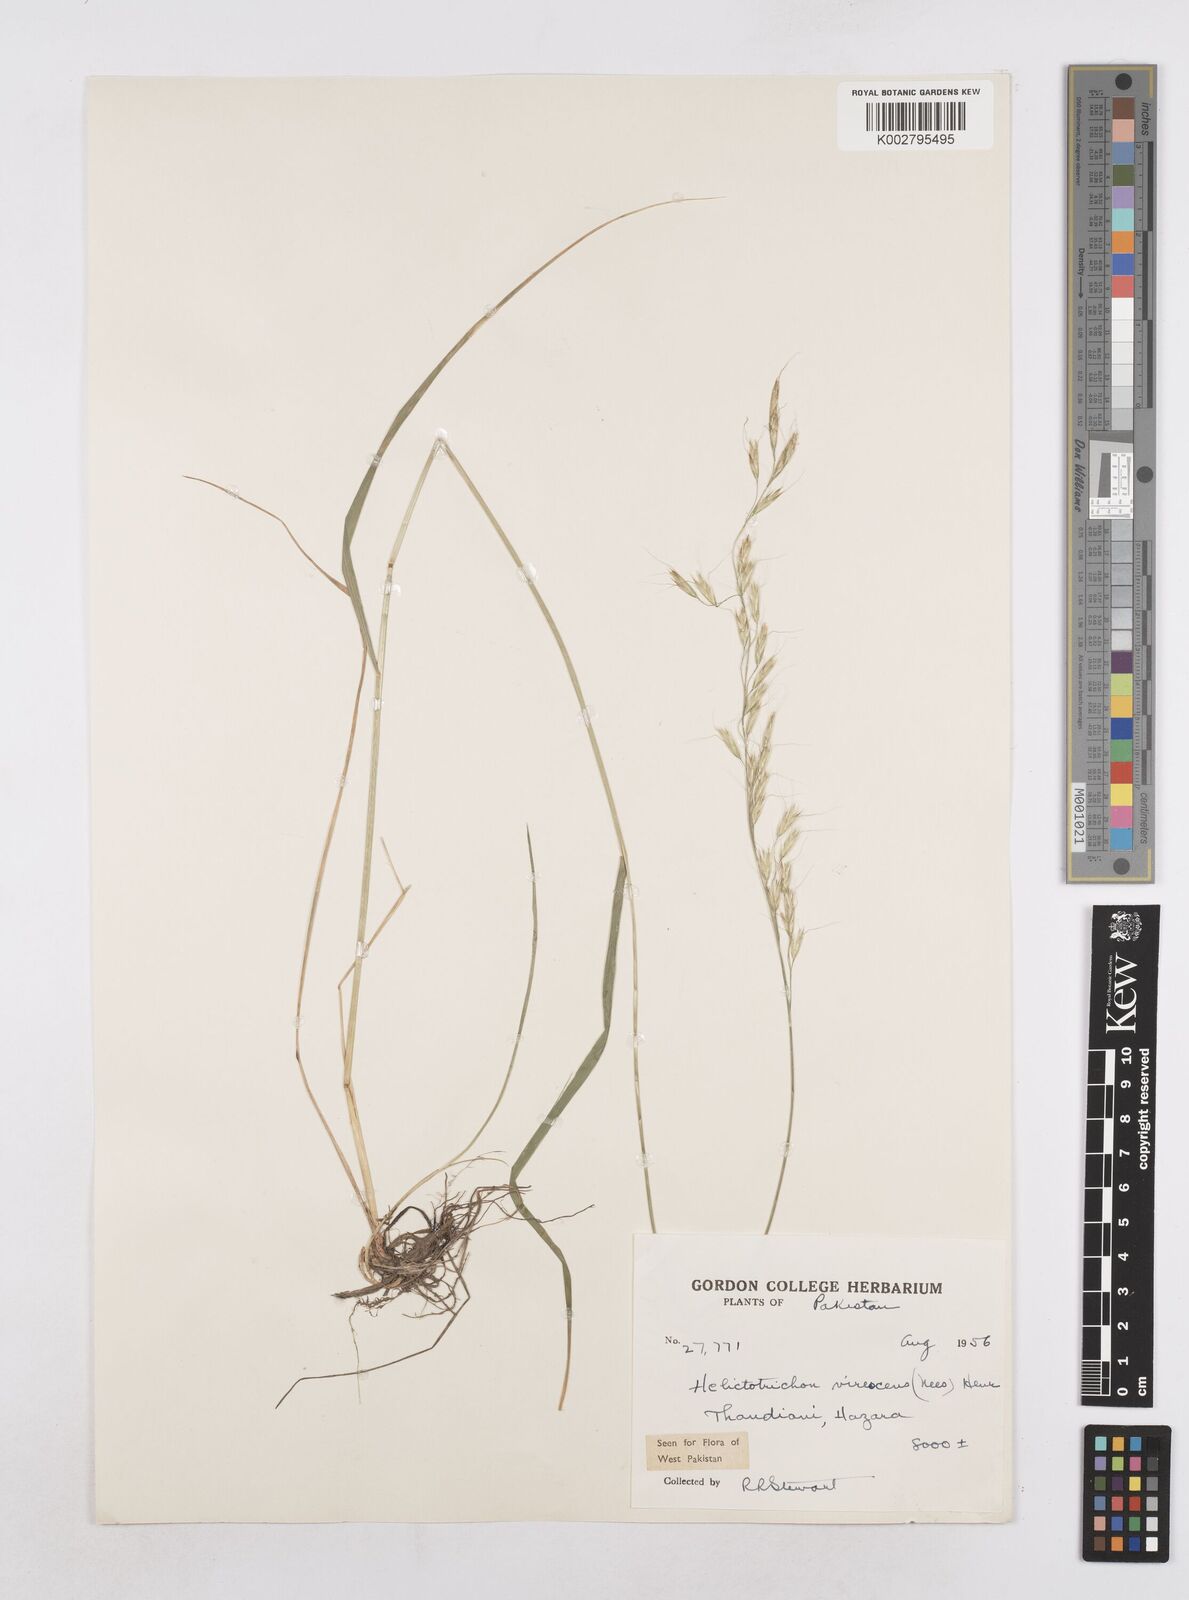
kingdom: Plantae
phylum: Tracheophyta
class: Liliopsida
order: Poales
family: Poaceae
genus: Trisetopsis
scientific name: Trisetopsis junghuhnii
